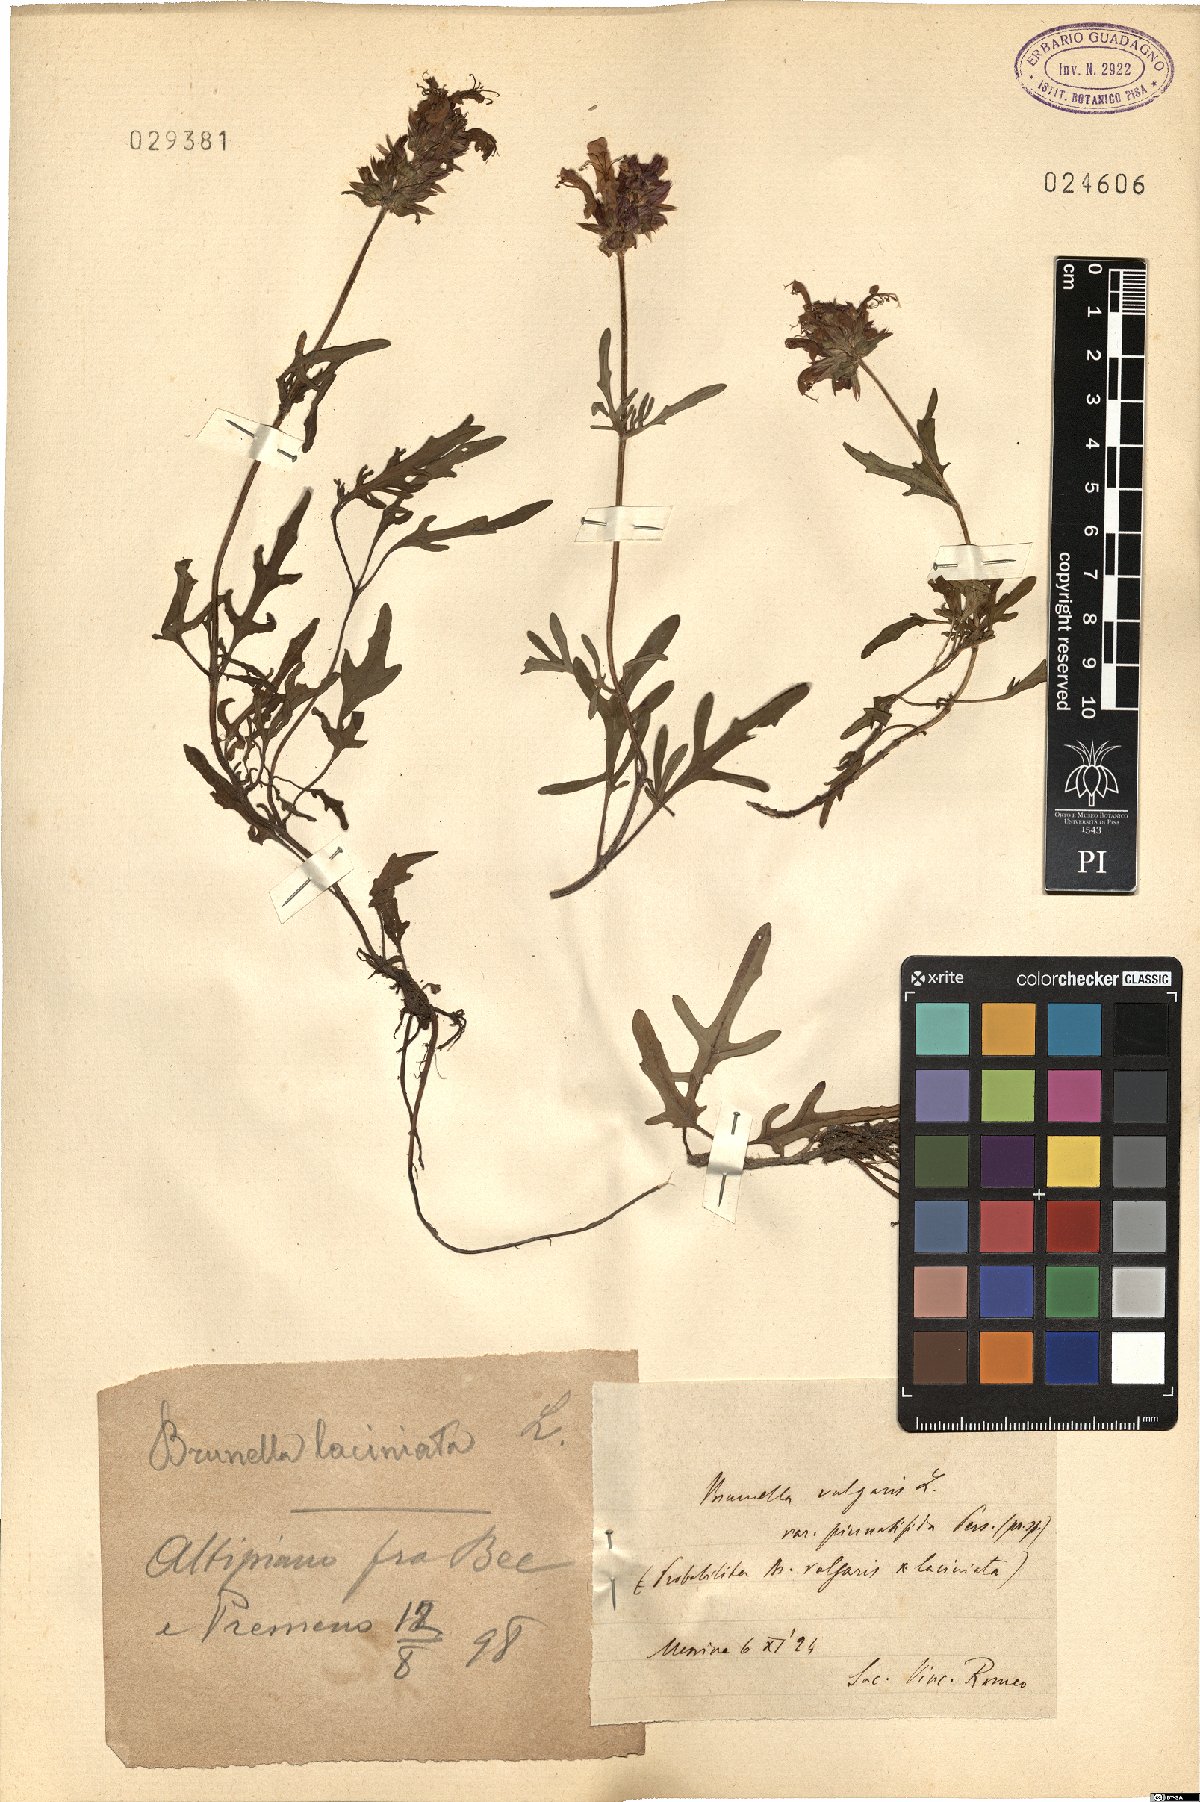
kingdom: Plantae
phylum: Tracheophyta
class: Magnoliopsida
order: Lamiales
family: Lamiaceae
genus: Prunella
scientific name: Prunella laciniata
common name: Cut-leaved selfheal
